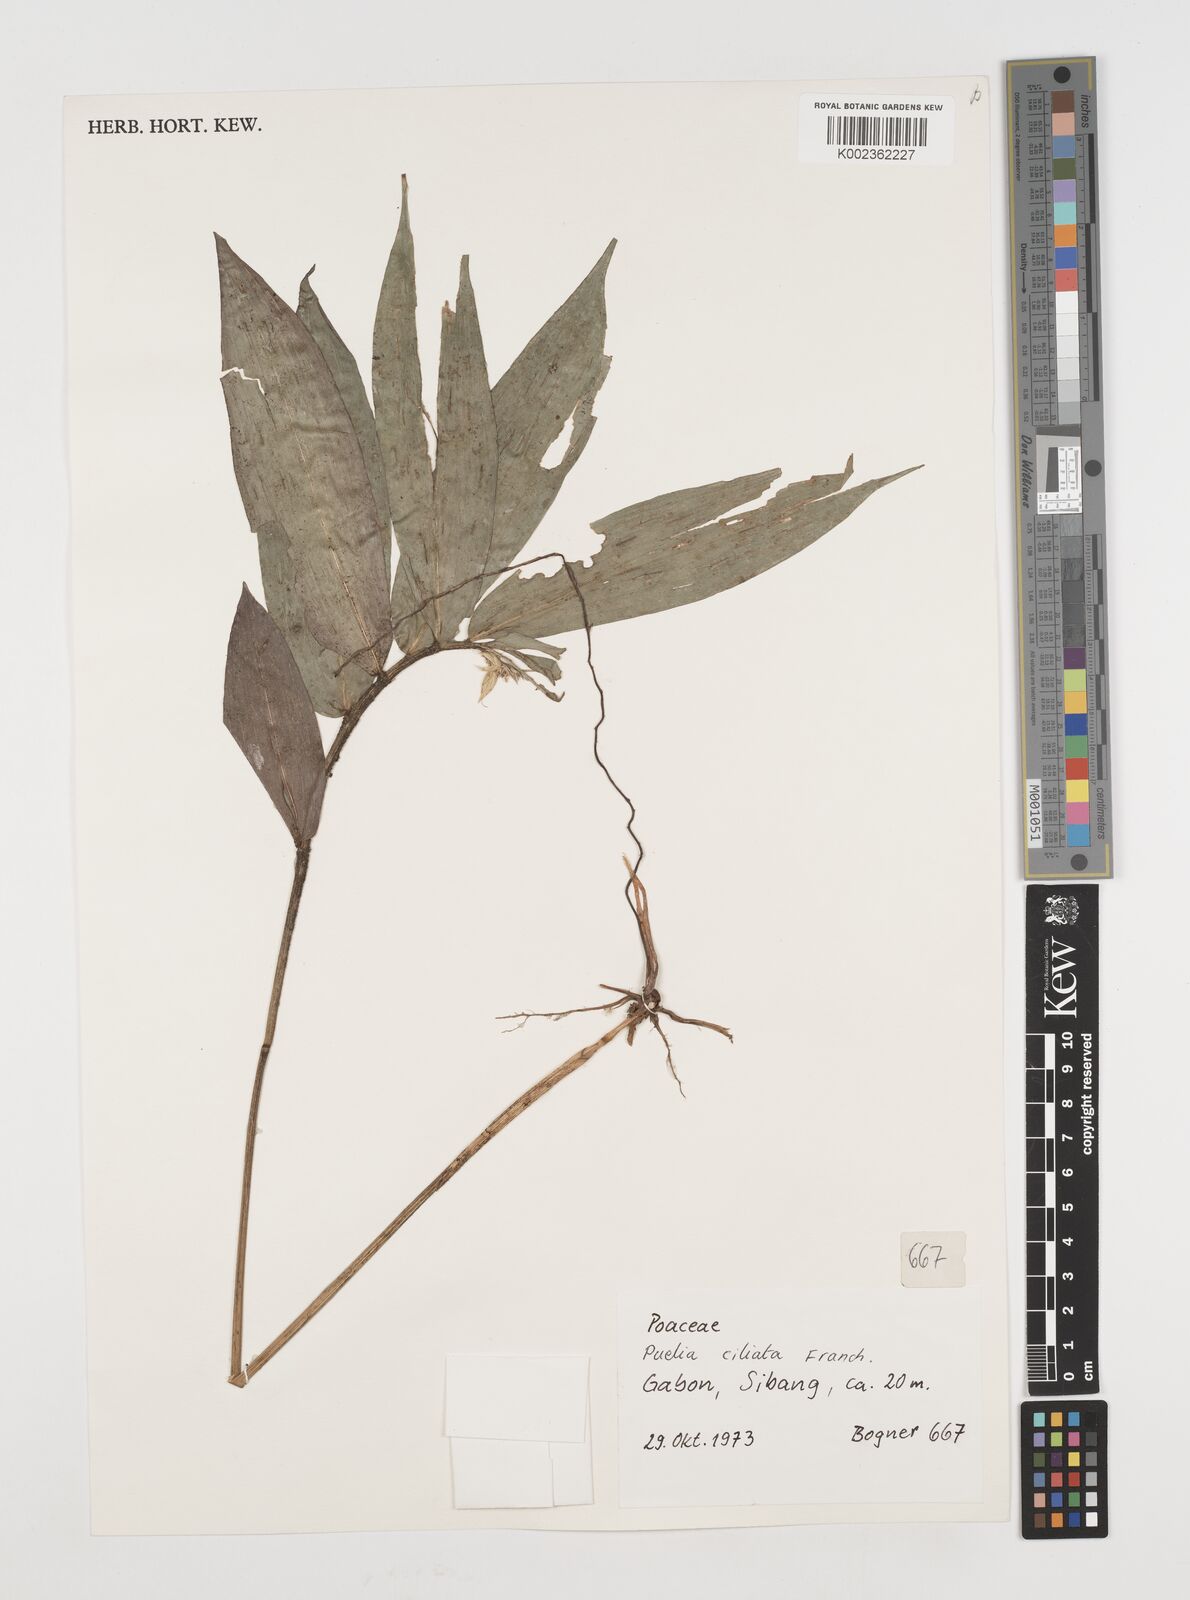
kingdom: Plantae
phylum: Tracheophyta
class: Liliopsida
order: Poales
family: Poaceae
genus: Puelia
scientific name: Puelia ciliata
